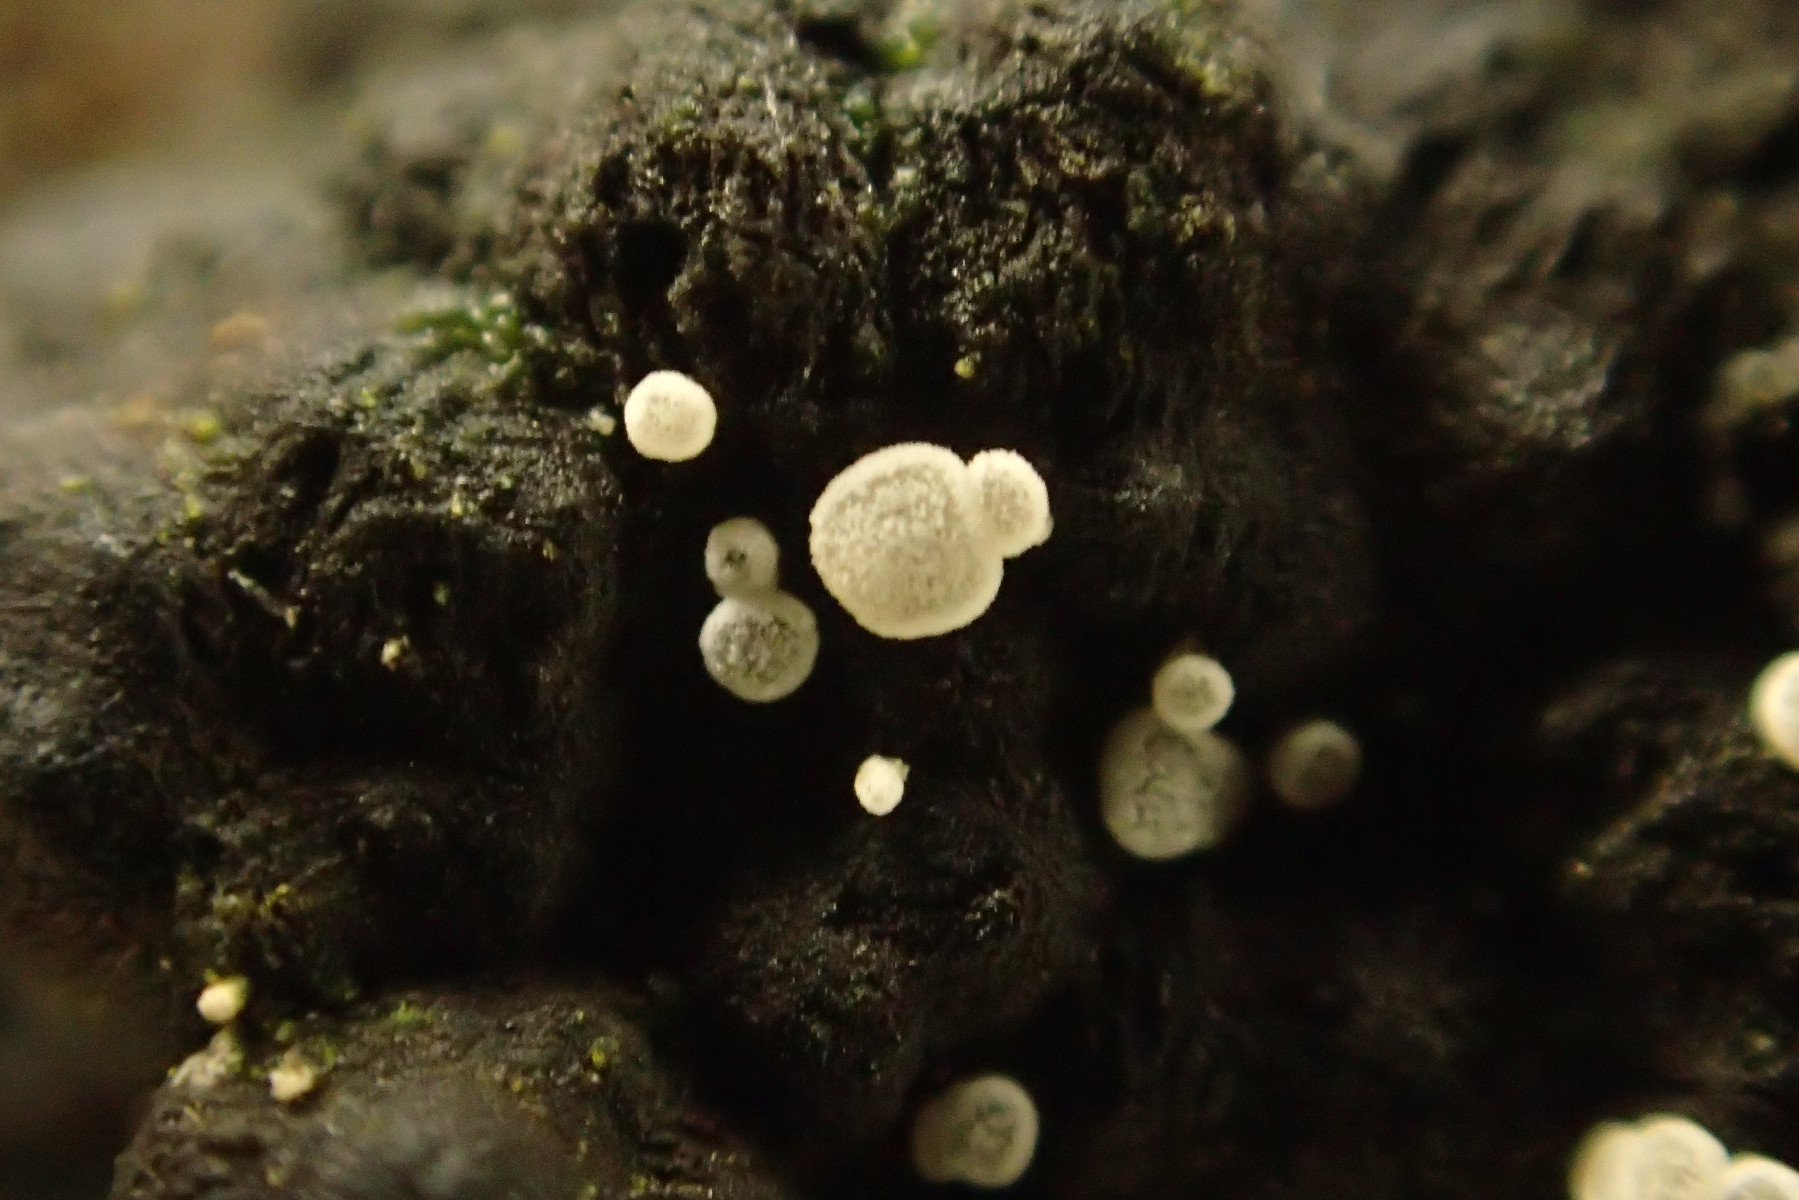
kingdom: Fungi
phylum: Ascomycota
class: Leotiomycetes
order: Helotiales
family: Hyaloscyphaceae
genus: Polydesmia
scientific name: Polydesmia pruinosa
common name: dunskive
